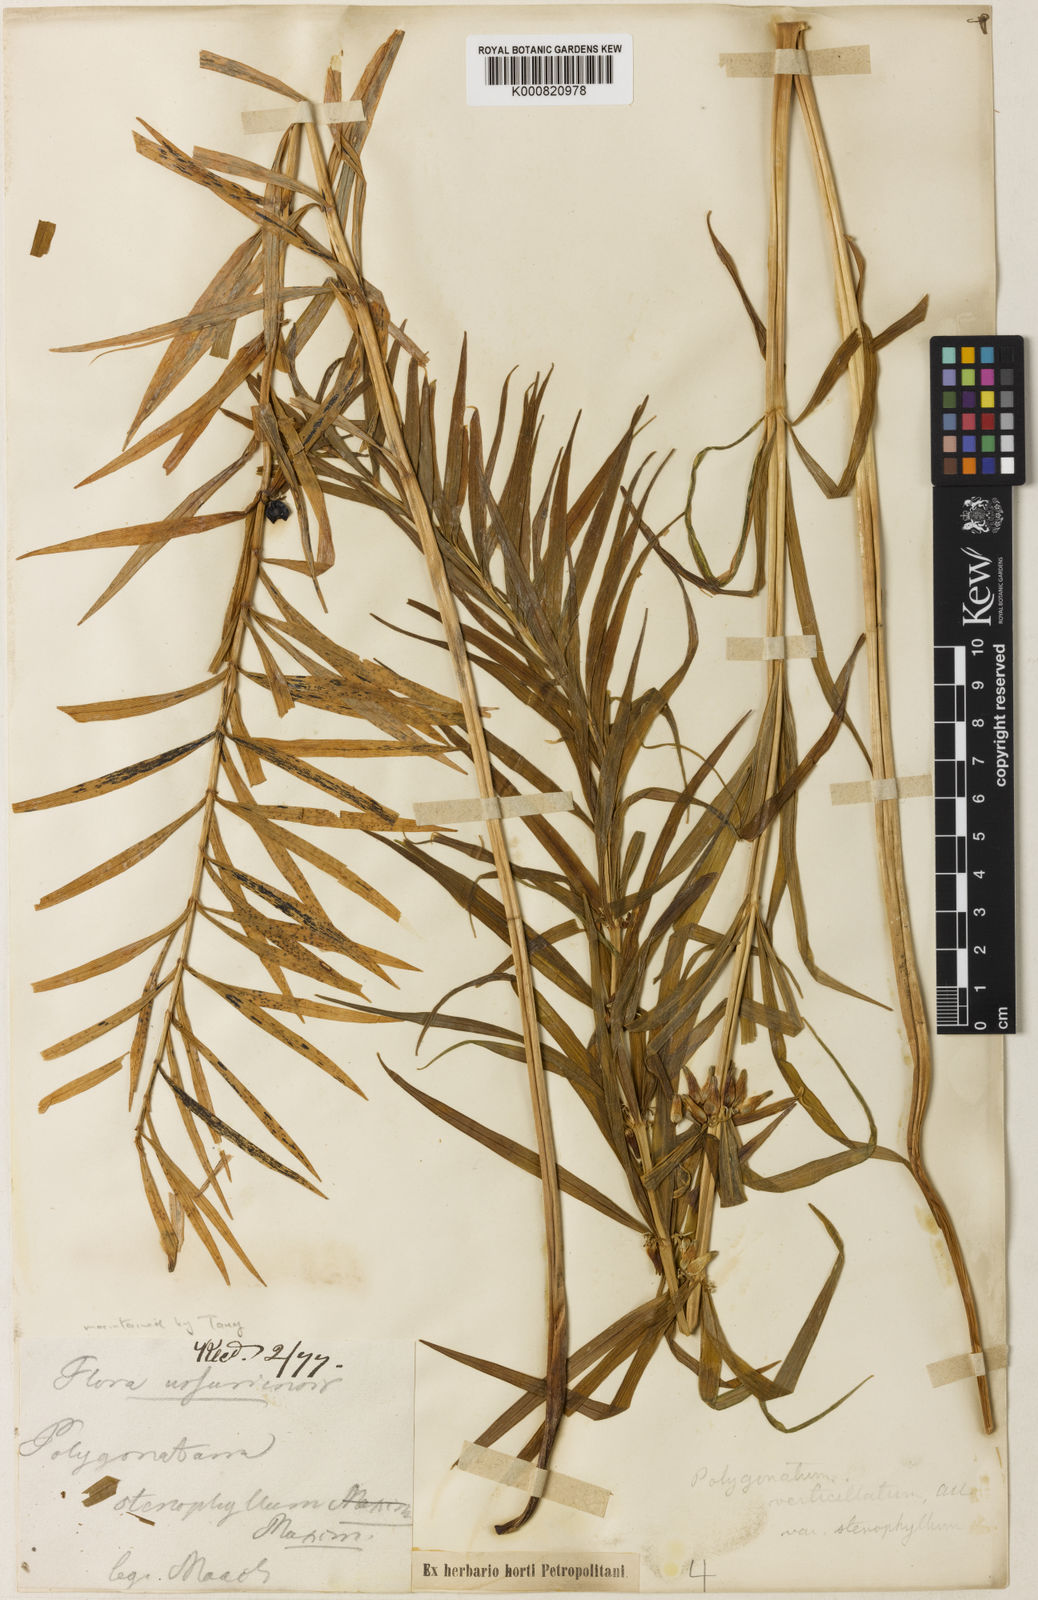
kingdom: Plantae
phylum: Tracheophyta
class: Liliopsida
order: Asparagales
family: Asparagaceae
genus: Polygonatum
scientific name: Polygonatum stenophyllum
